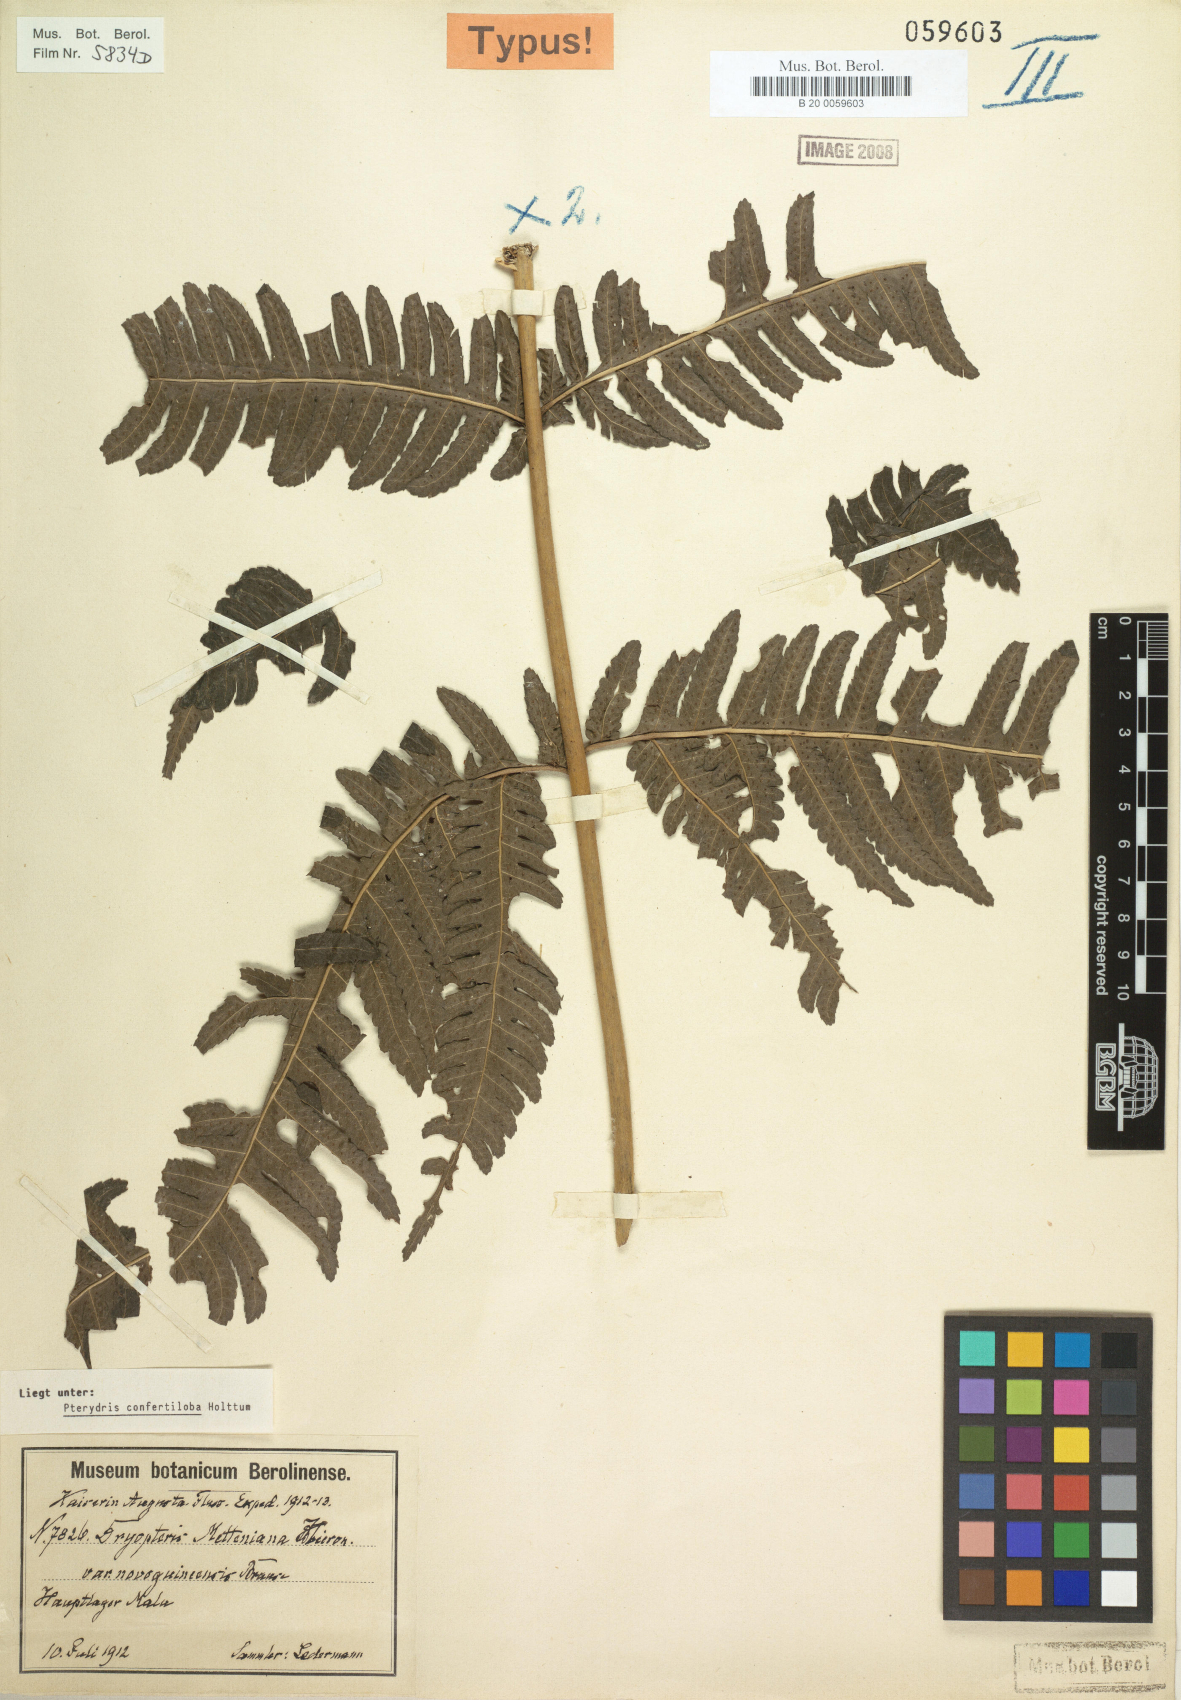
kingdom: Plantae
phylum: Tracheophyta
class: Polypodiopsida
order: Polypodiales
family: Tectariaceae
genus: Pteridrys
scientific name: Pteridrys confertiloba
